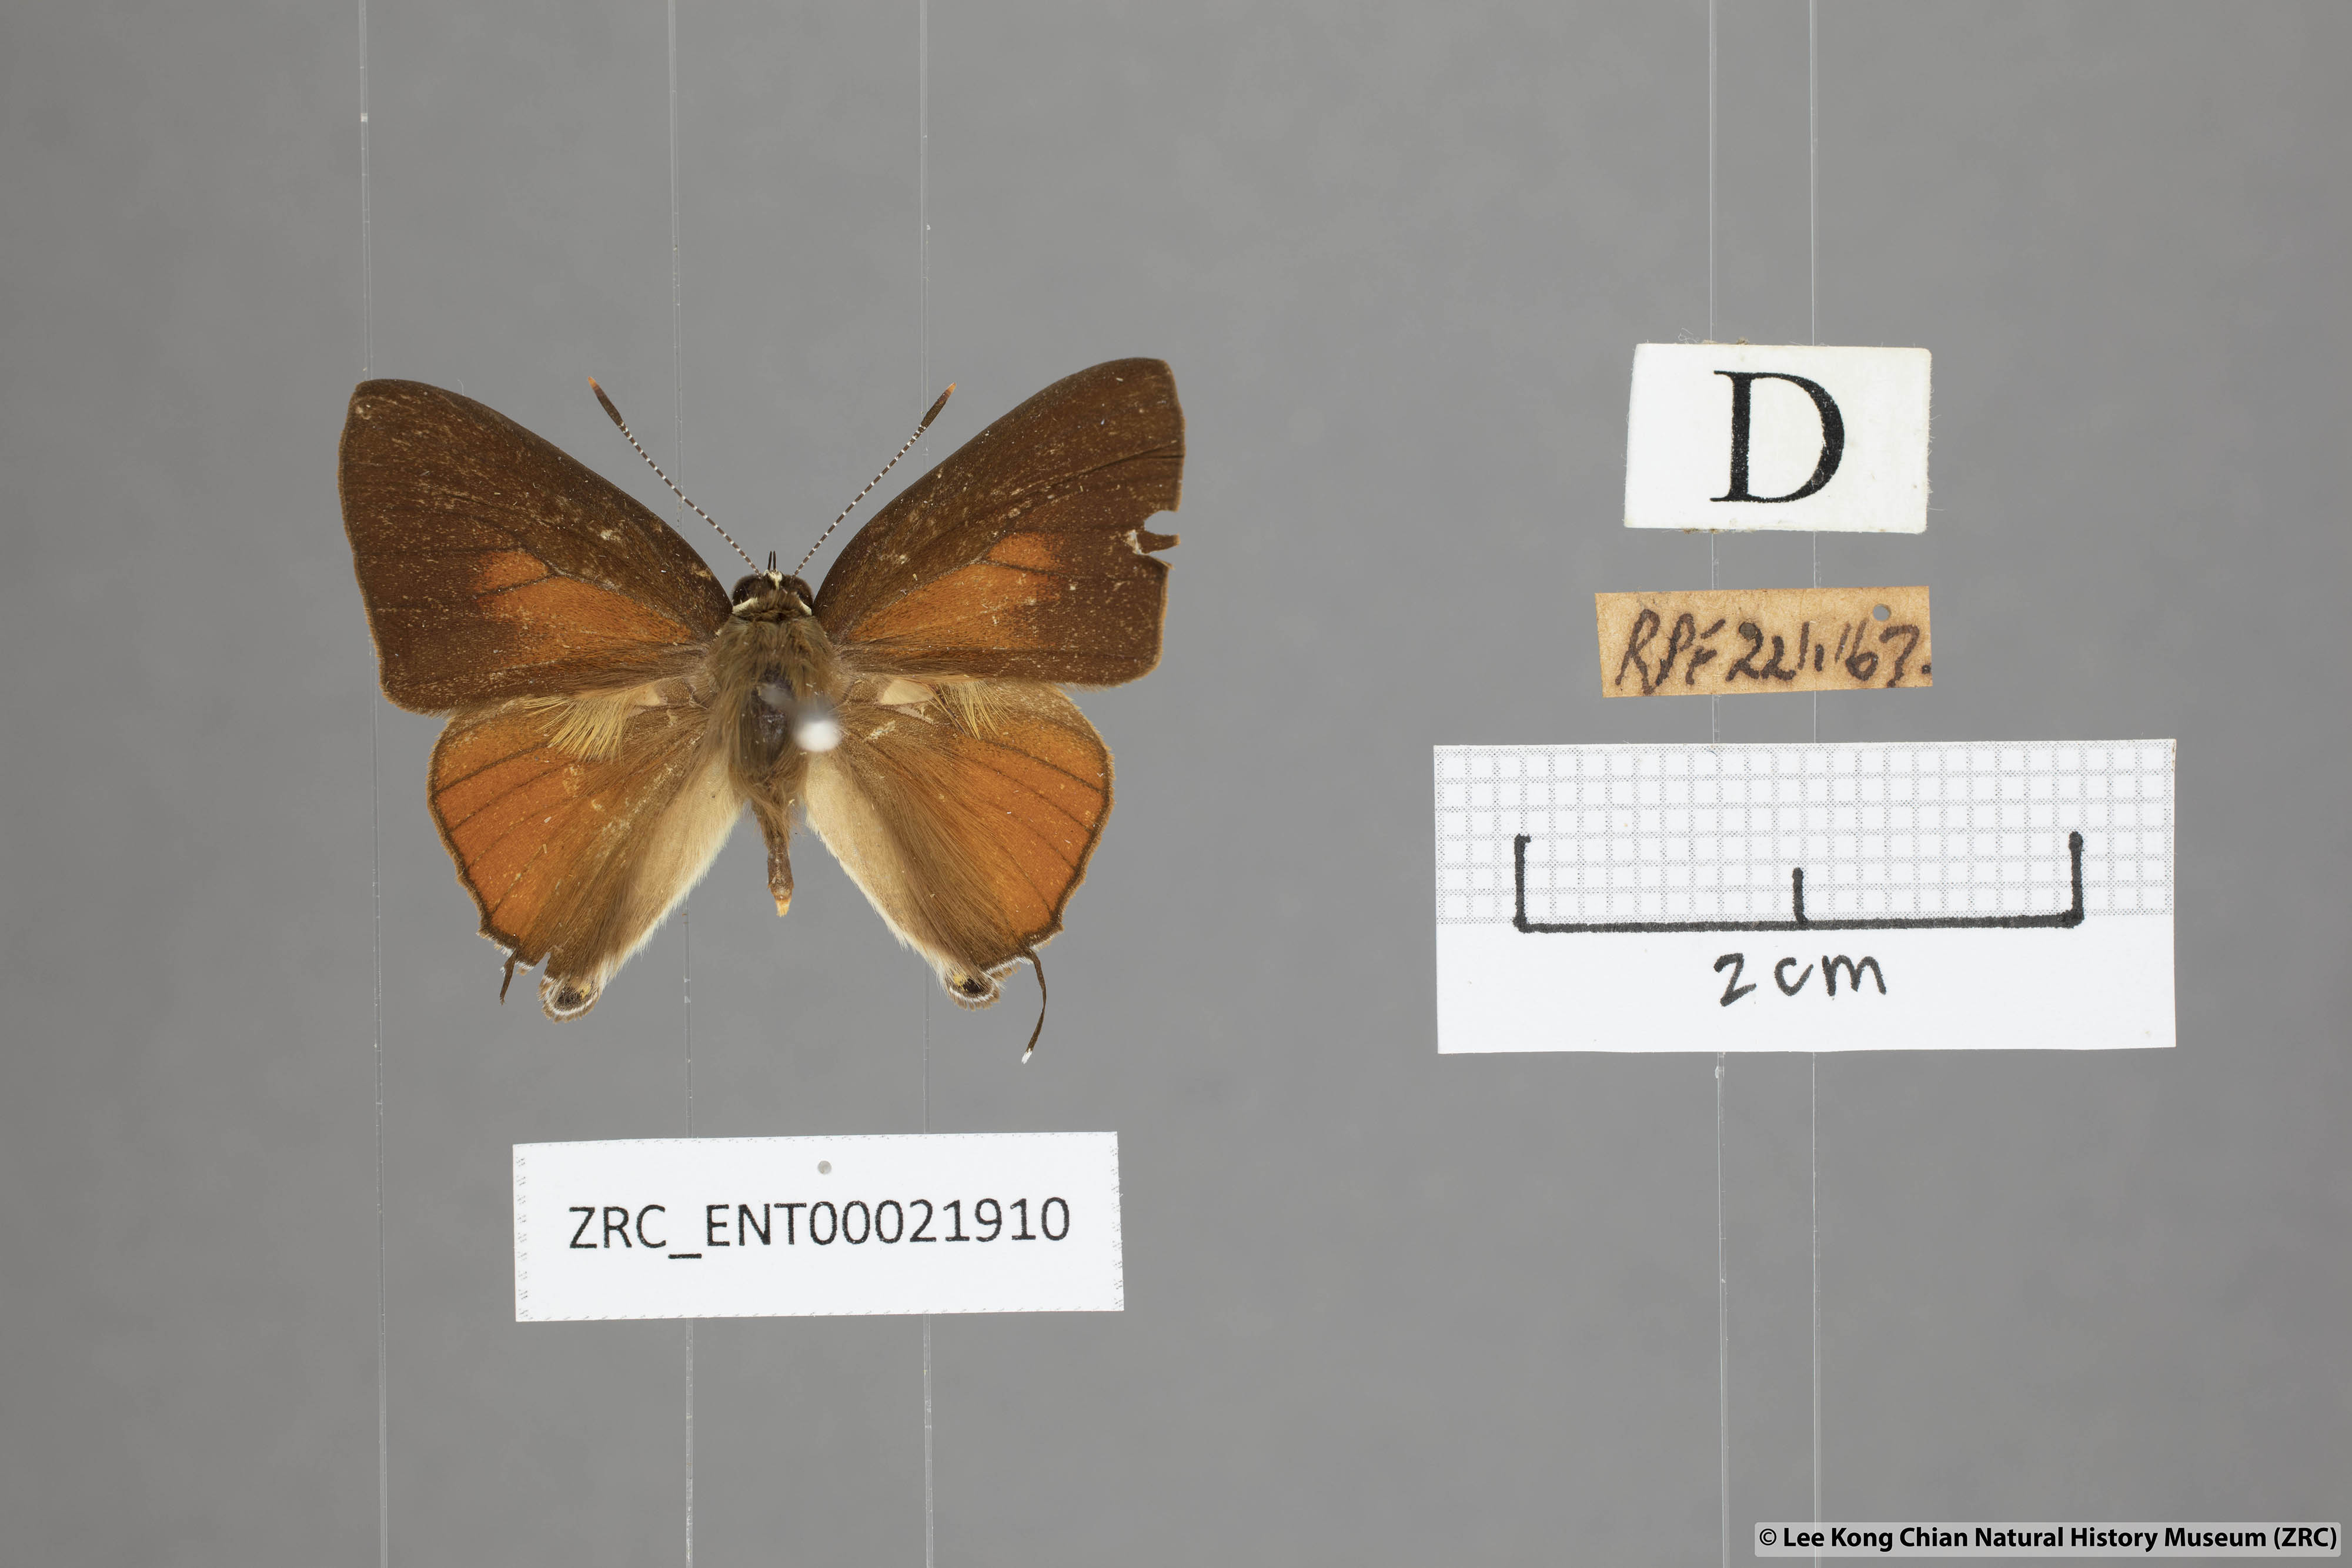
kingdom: Animalia
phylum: Arthropoda
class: Insecta
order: Lepidoptera
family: Lycaenidae
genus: Rapala
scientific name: Rapala suffusa
